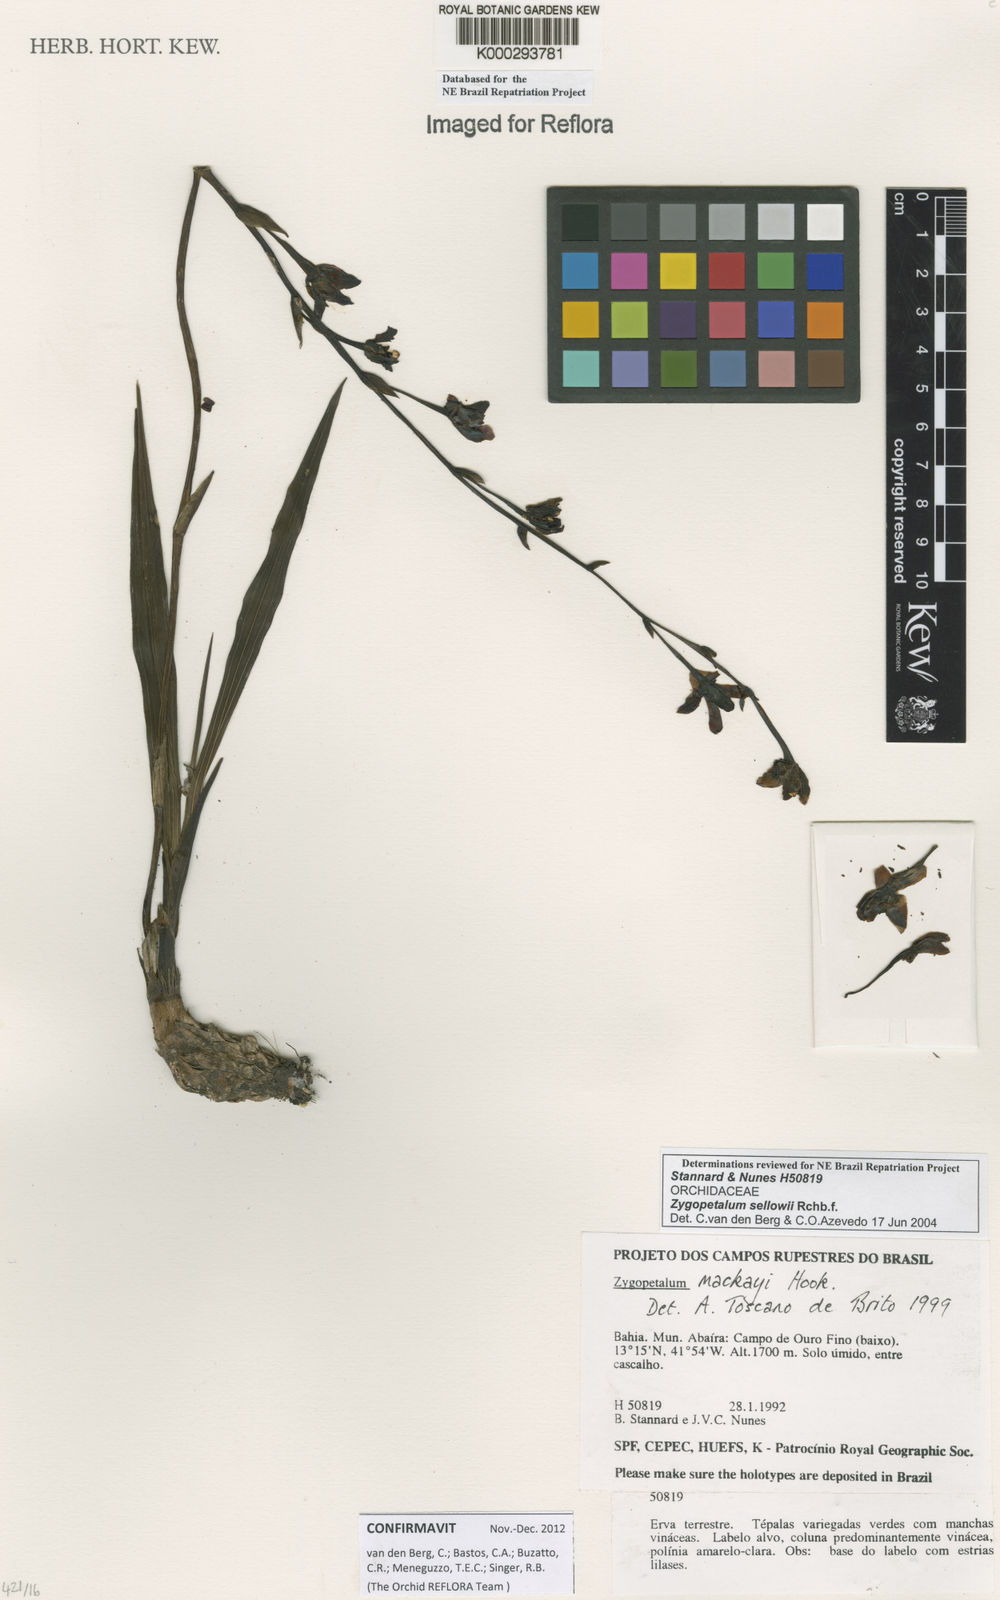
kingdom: Plantae
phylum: Tracheophyta
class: Liliopsida
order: Asparagales
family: Orchidaceae
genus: Zygopetalum
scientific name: Zygopetalum sellowii
